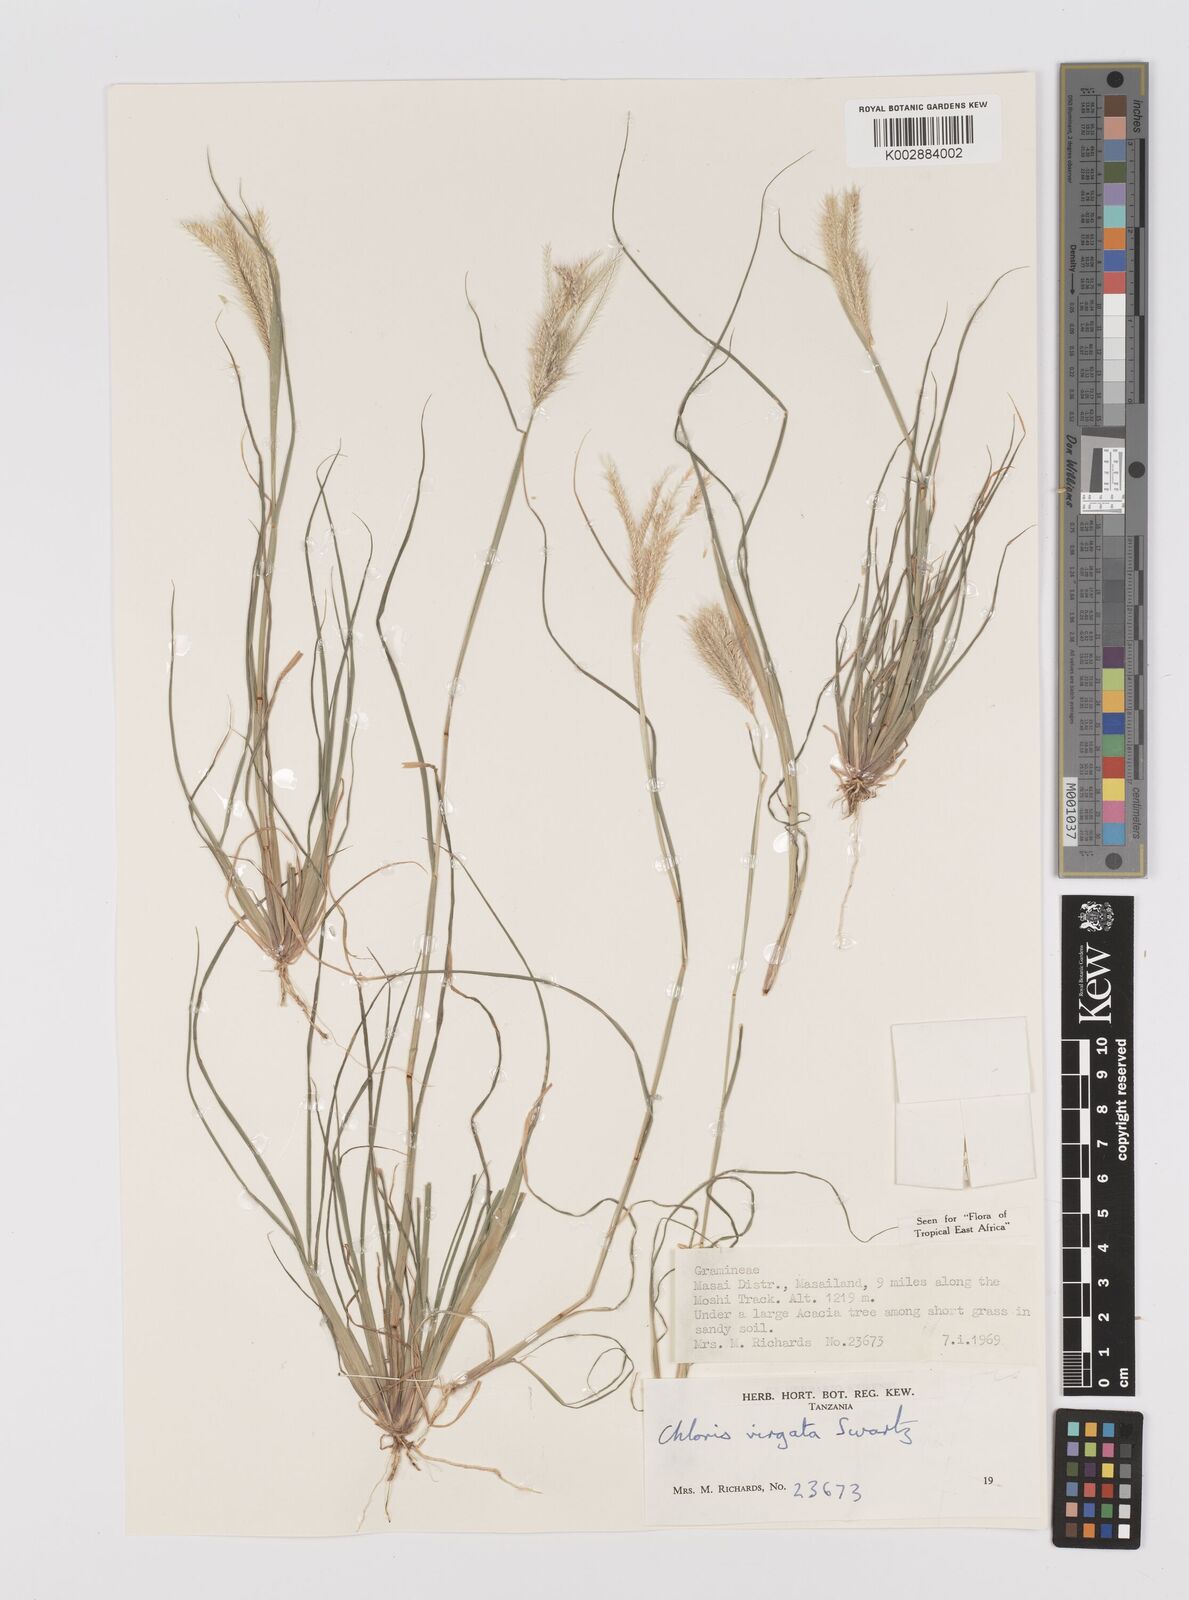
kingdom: Plantae
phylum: Tracheophyta
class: Liliopsida
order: Poales
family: Poaceae
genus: Chloris
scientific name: Chloris virgata
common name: Feathery rhodes-grass
